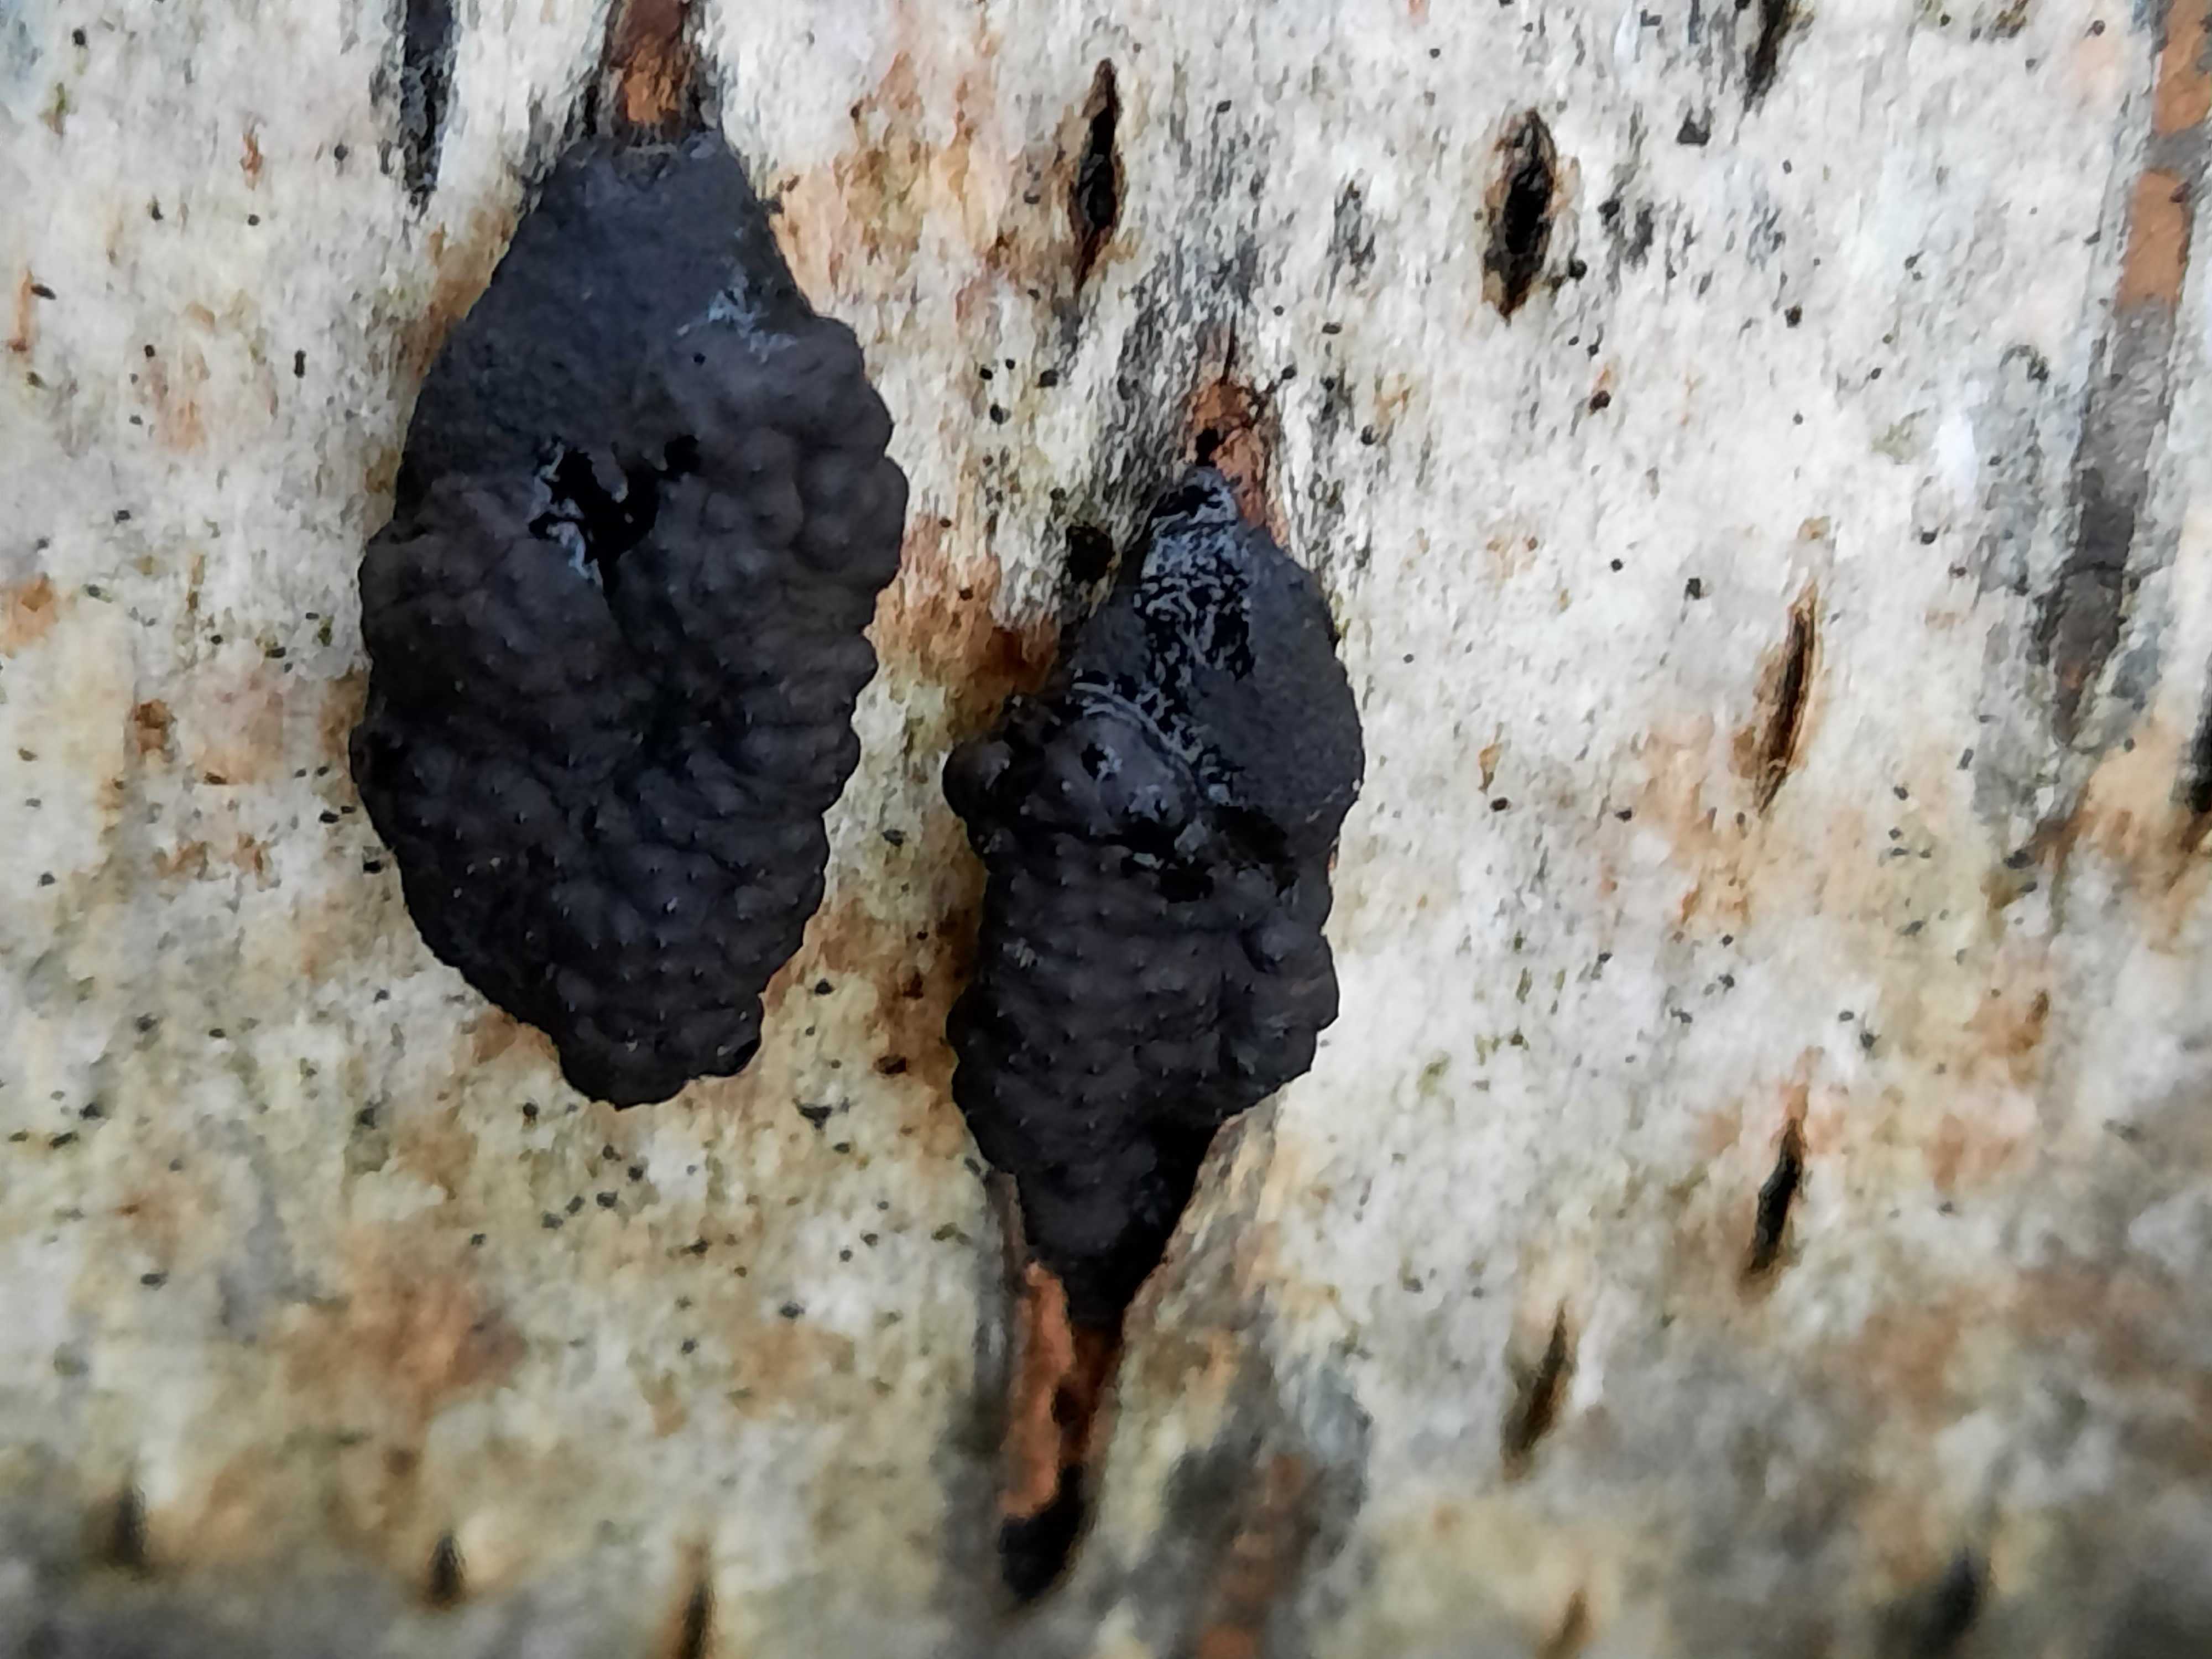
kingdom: Fungi
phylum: Ascomycota
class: Sordariomycetes
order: Xylariales
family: Hypoxylaceae
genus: Jackrogersella
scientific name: Jackrogersella multiformis
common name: foranderlig kulbær
